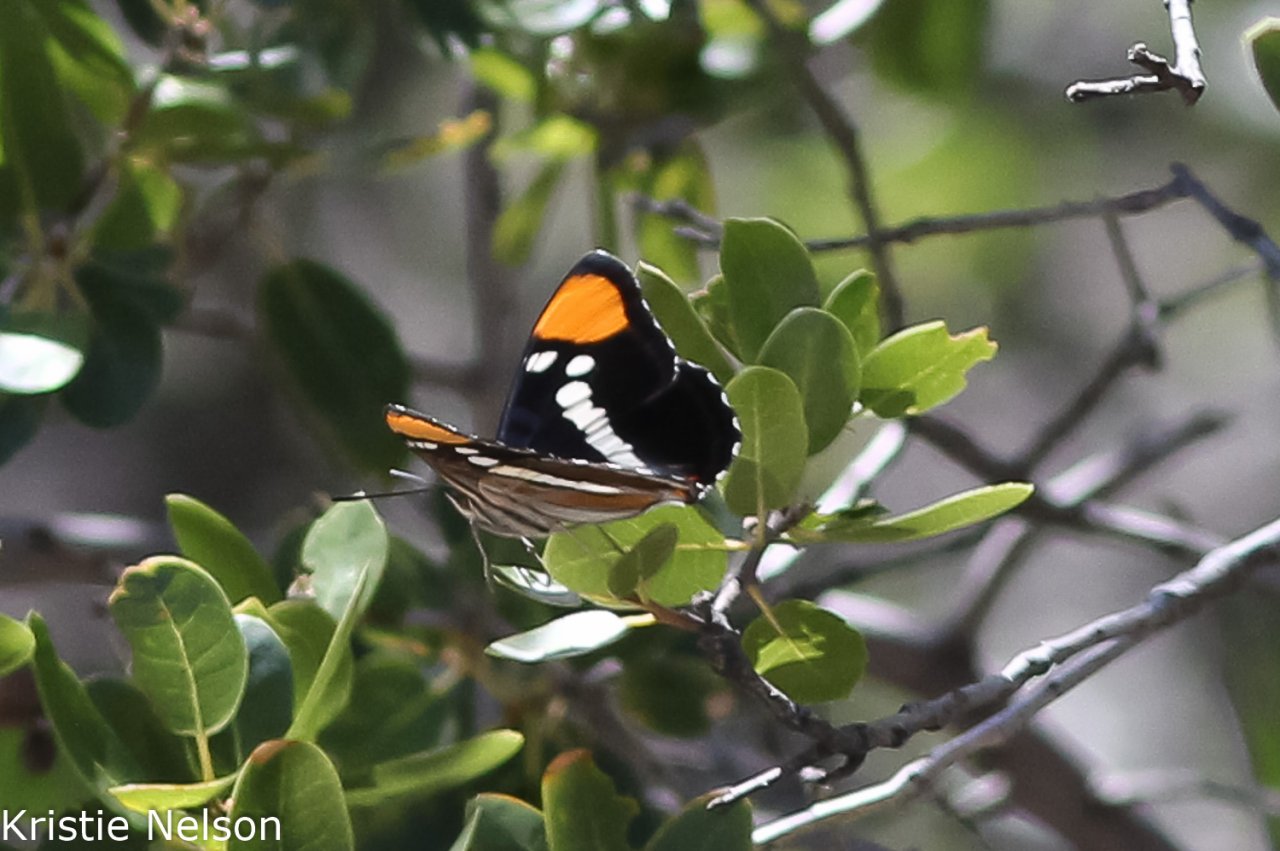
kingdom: Animalia
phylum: Arthropoda
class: Insecta
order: Lepidoptera
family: Nymphalidae
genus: Limenitis
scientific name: Limenitis bredowii
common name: California Sister
